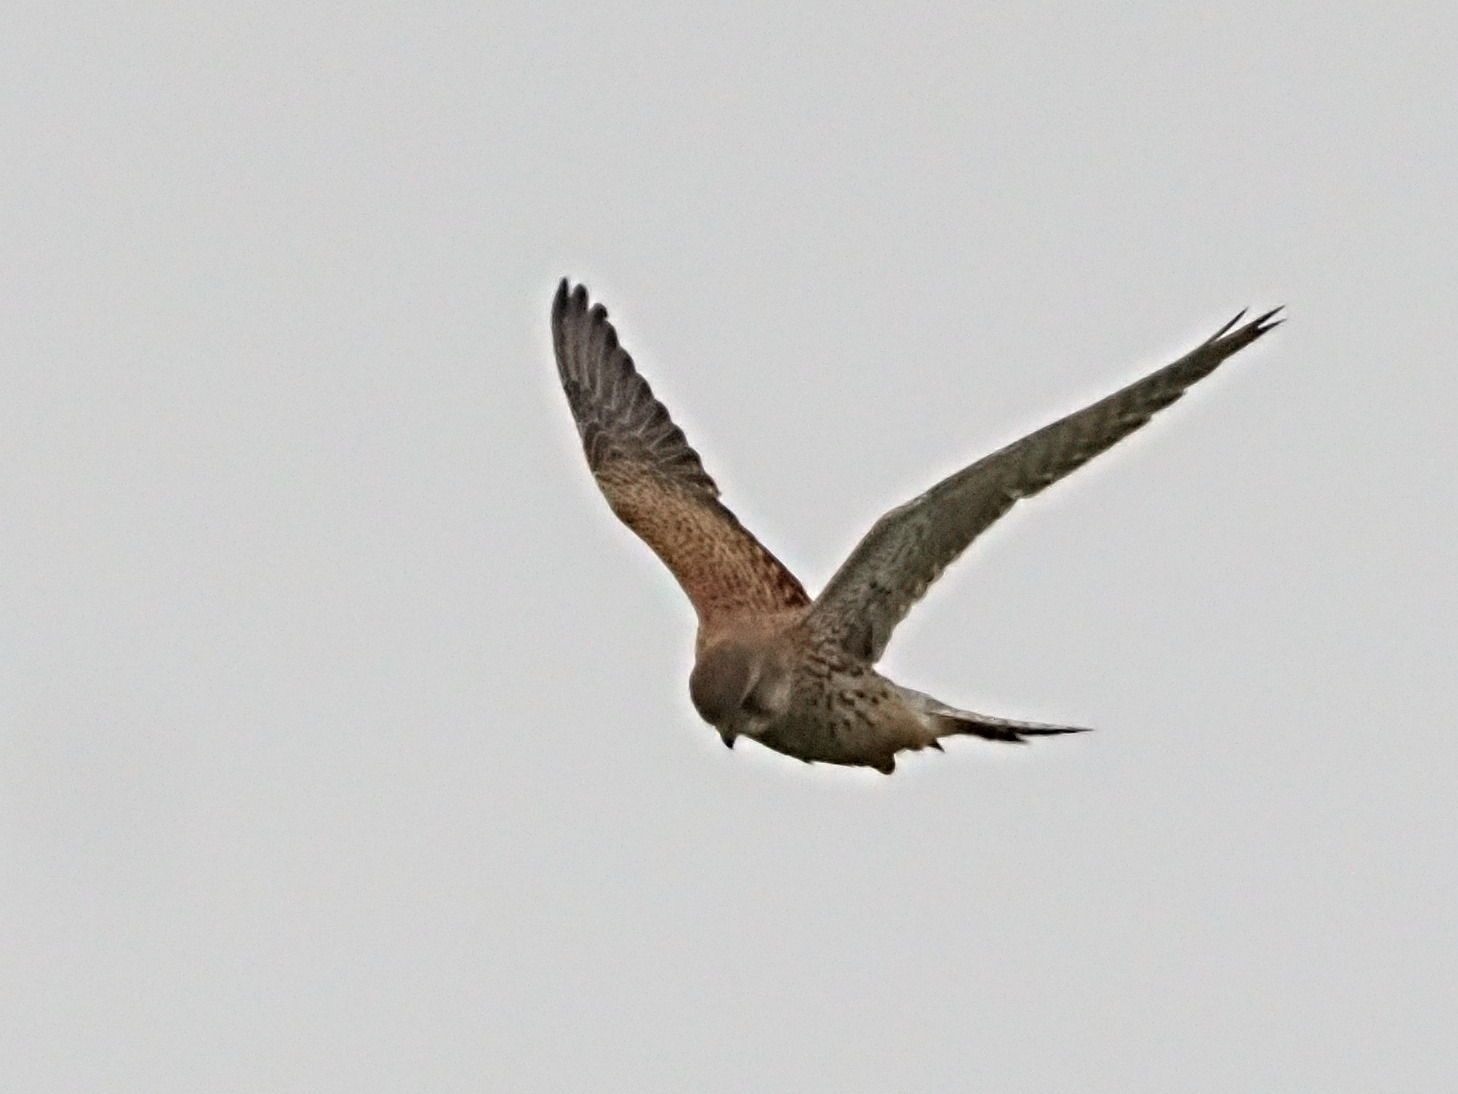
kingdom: Animalia
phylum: Chordata
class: Aves
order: Accipitriformes
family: Accipitridae
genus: Accipiter
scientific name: Accipiter nisus
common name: Spurvehøg
